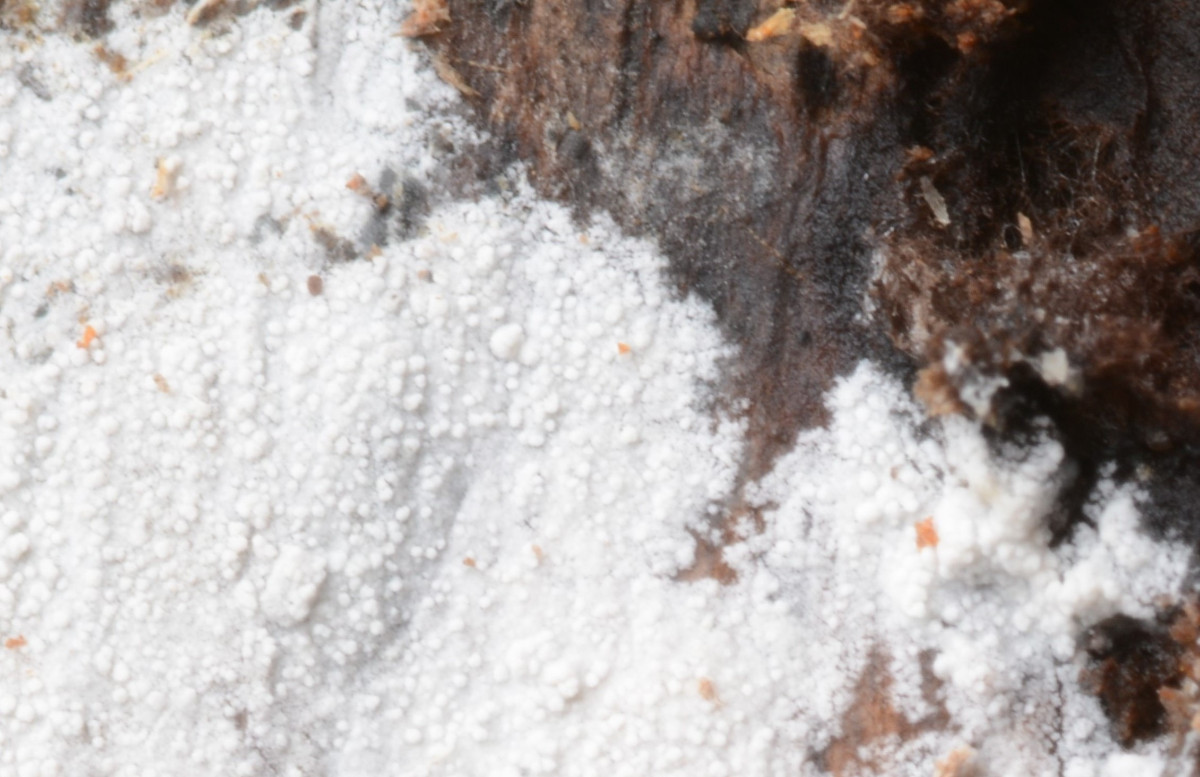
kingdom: Fungi
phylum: Basidiomycota
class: Agaricomycetes
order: Cantharellales
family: Hydnaceae
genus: Sistotrema
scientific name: Sistotrema brinkmannii
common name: bønnesporet kroneskorpe
